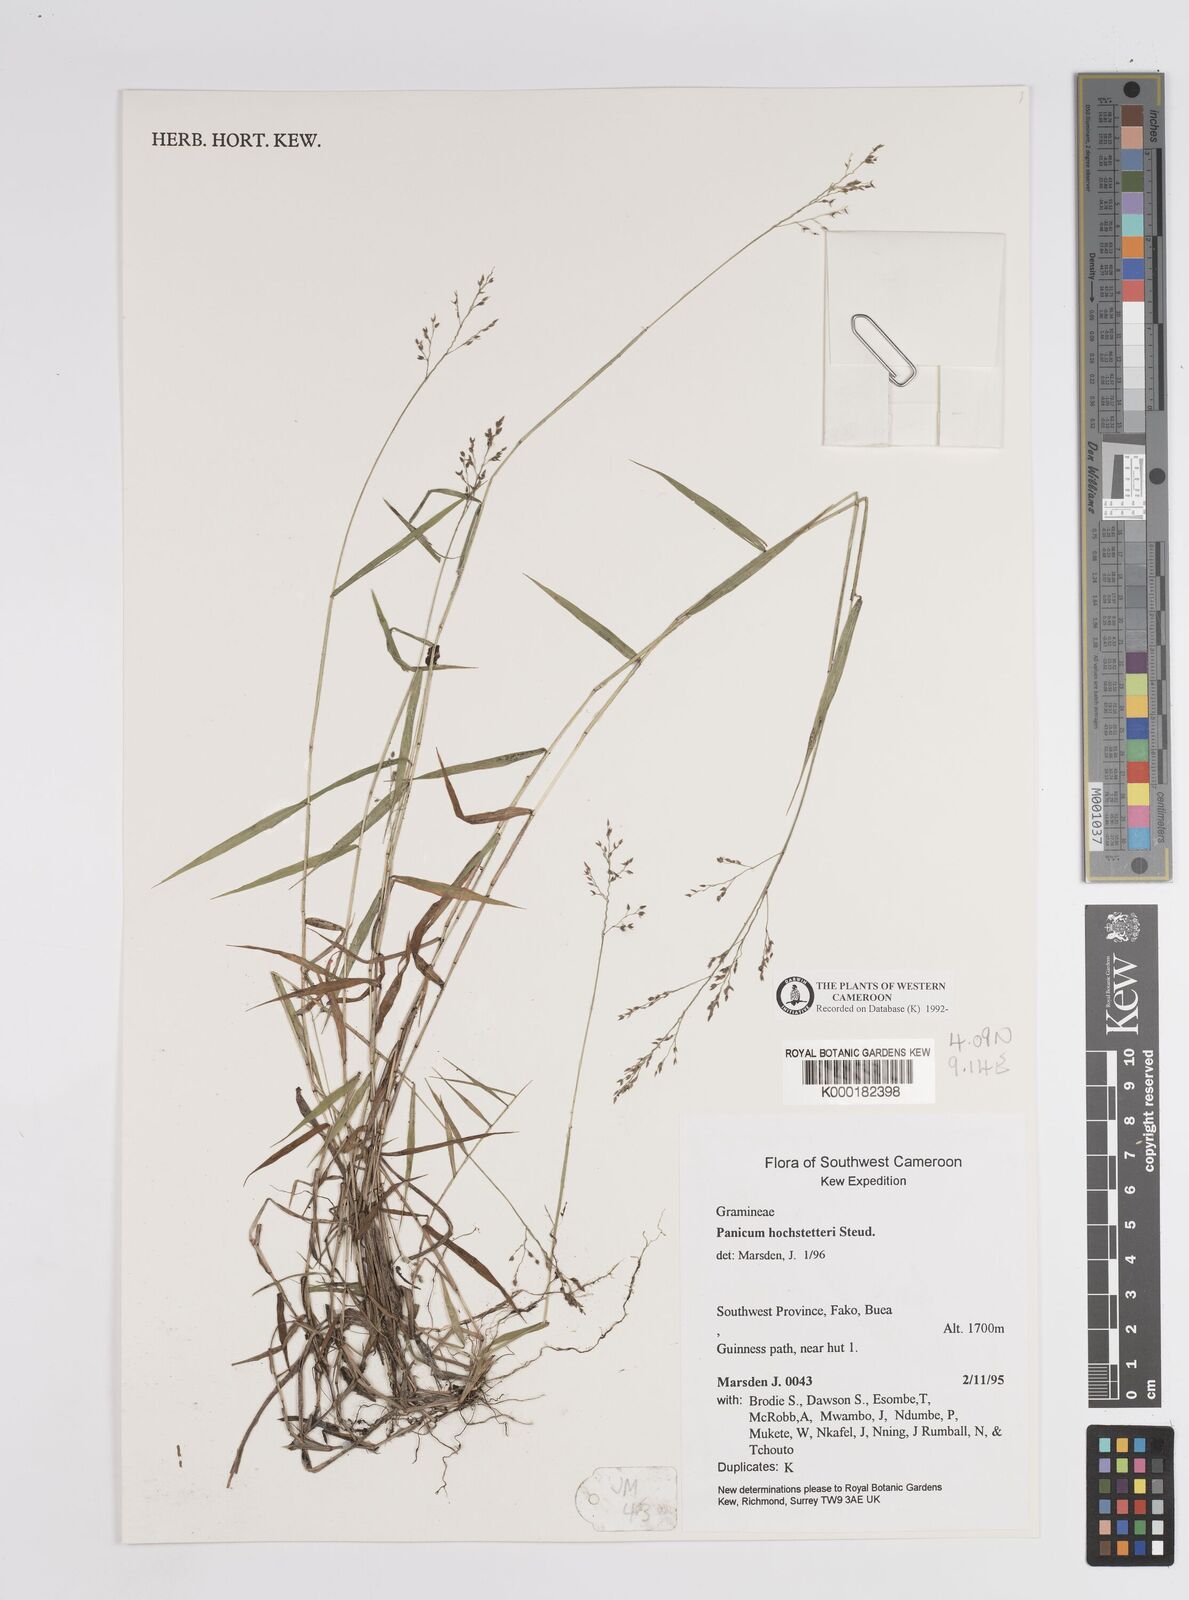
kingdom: Plantae
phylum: Tracheophyta
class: Liliopsida
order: Poales
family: Poaceae
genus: Panicum
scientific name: Panicum hochstetteri
